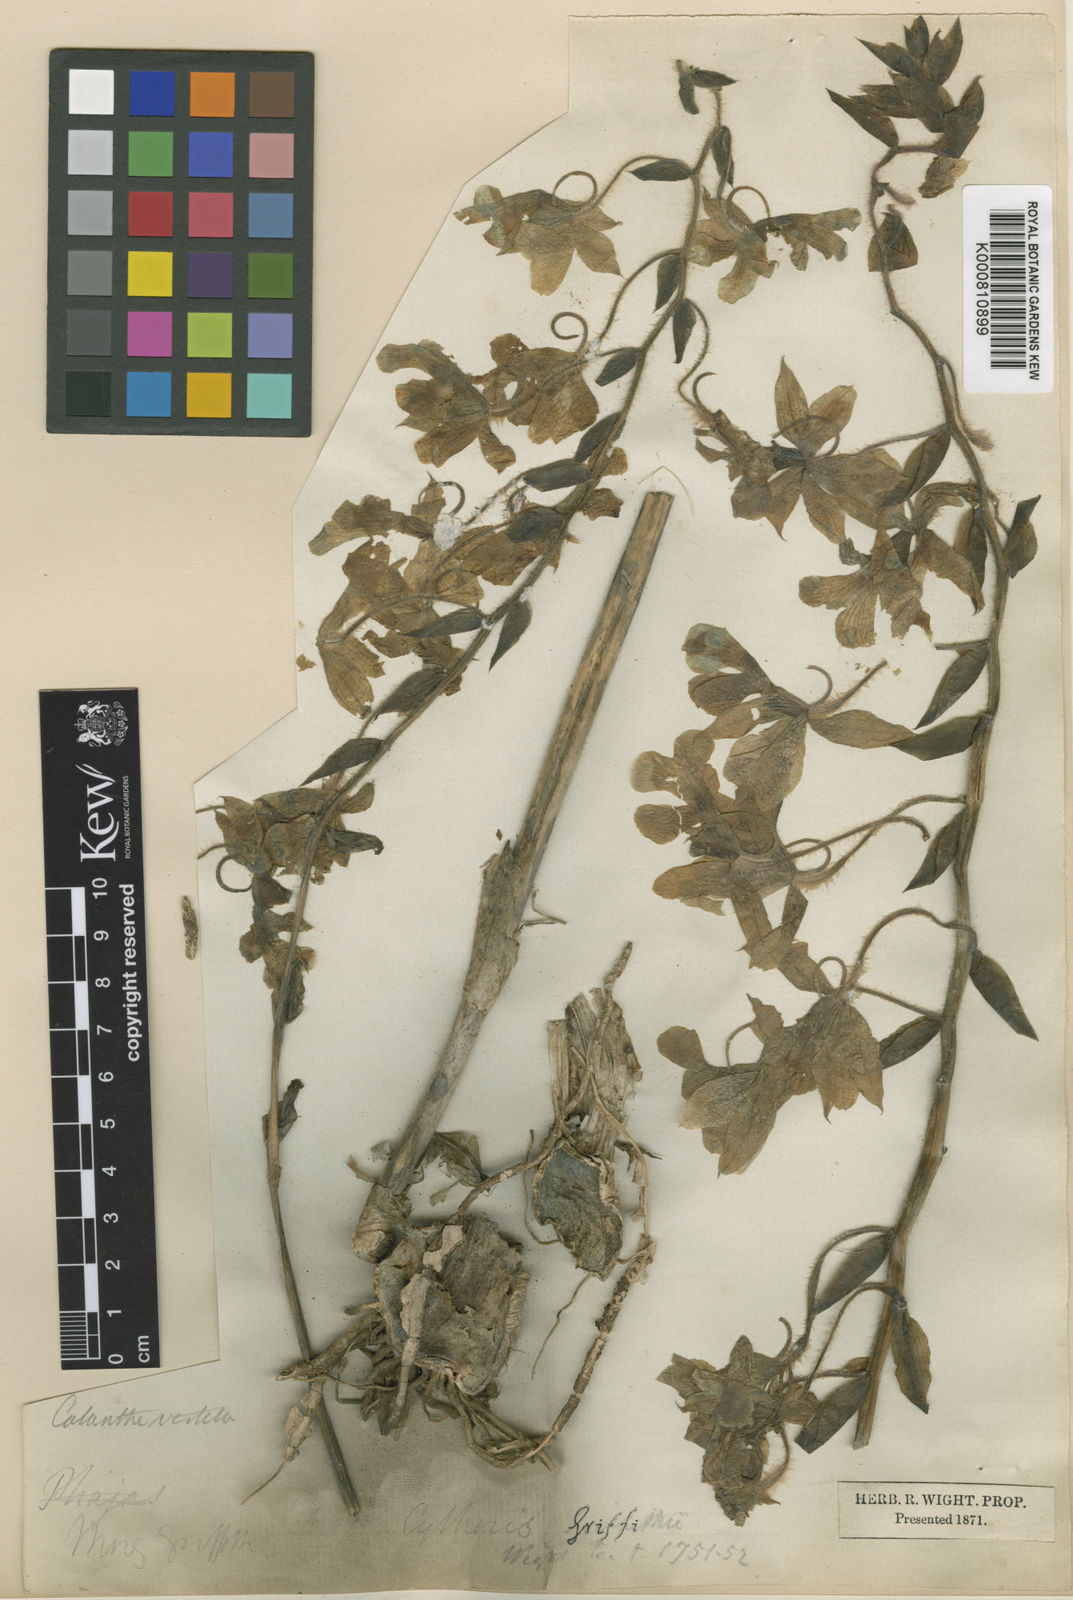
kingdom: Plantae
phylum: Tracheophyta
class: Liliopsida
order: Asparagales
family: Orchidaceae
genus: Calanthe
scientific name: Calanthe vestita
